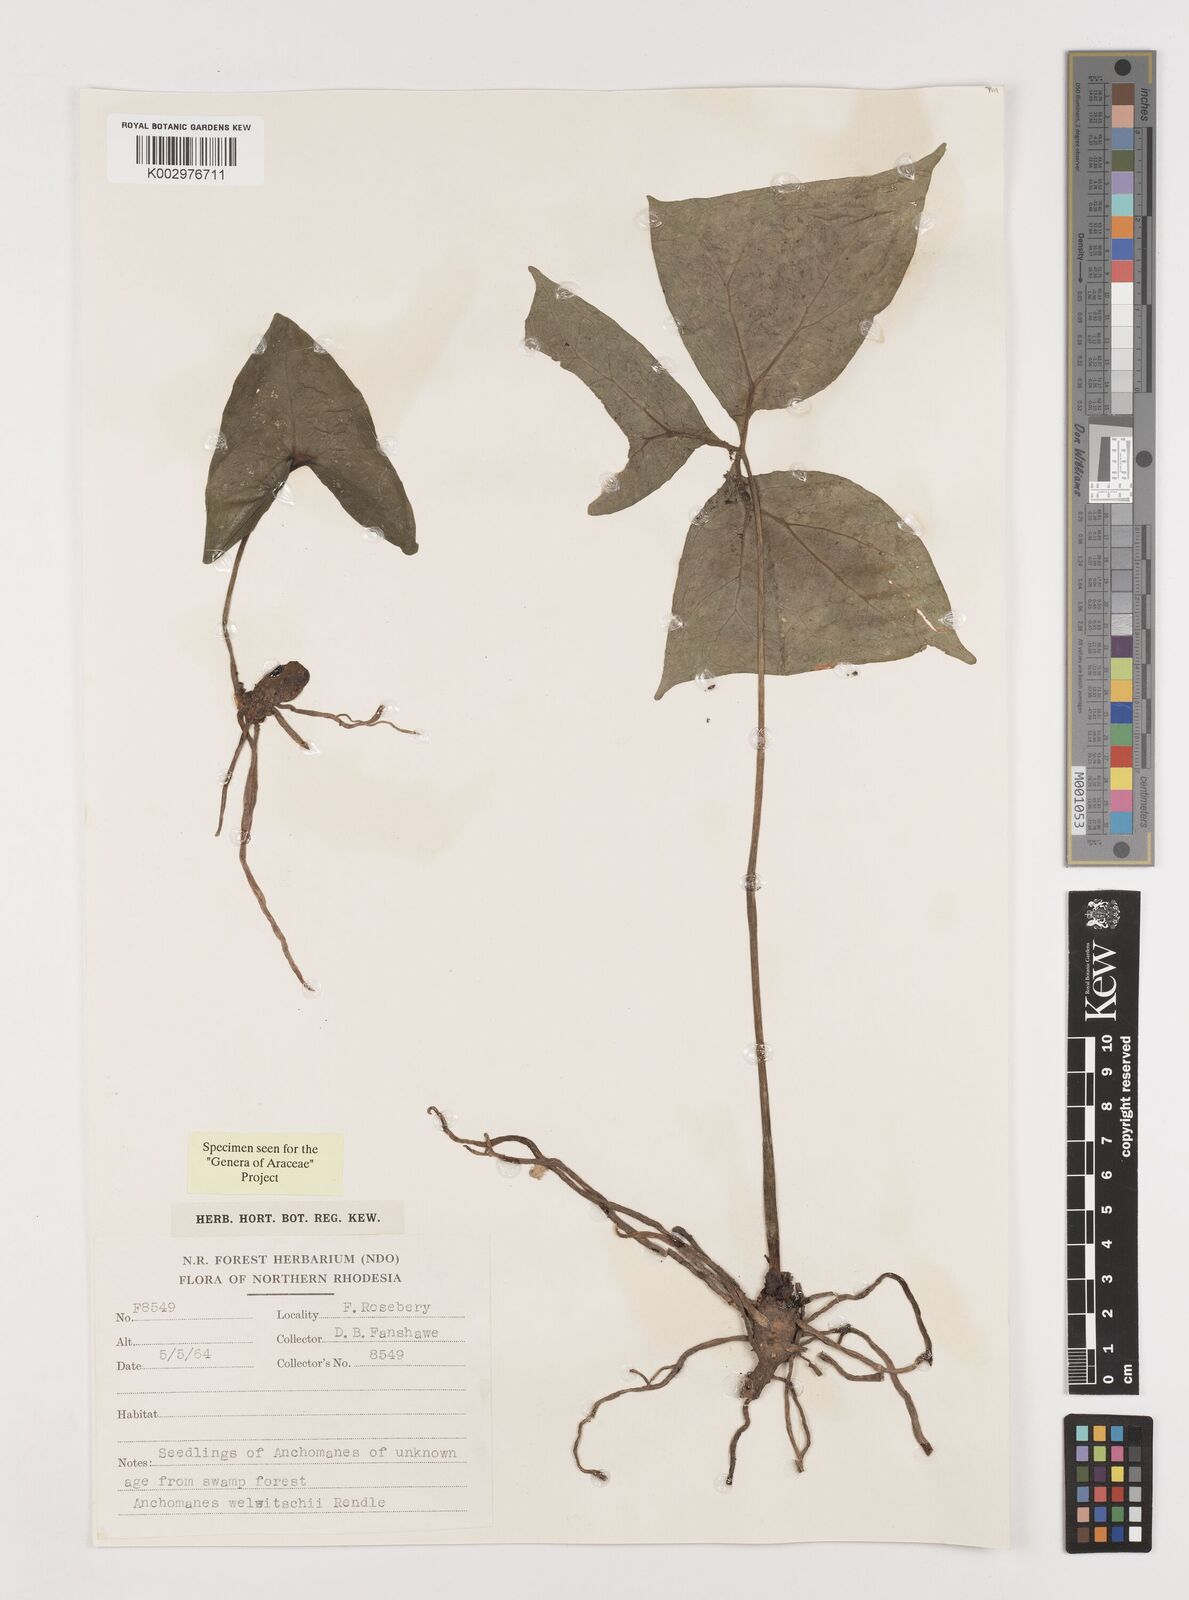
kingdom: Plantae
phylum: Tracheophyta
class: Liliopsida
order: Alismatales
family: Araceae
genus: Anchomanes
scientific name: Anchomanes difformis
